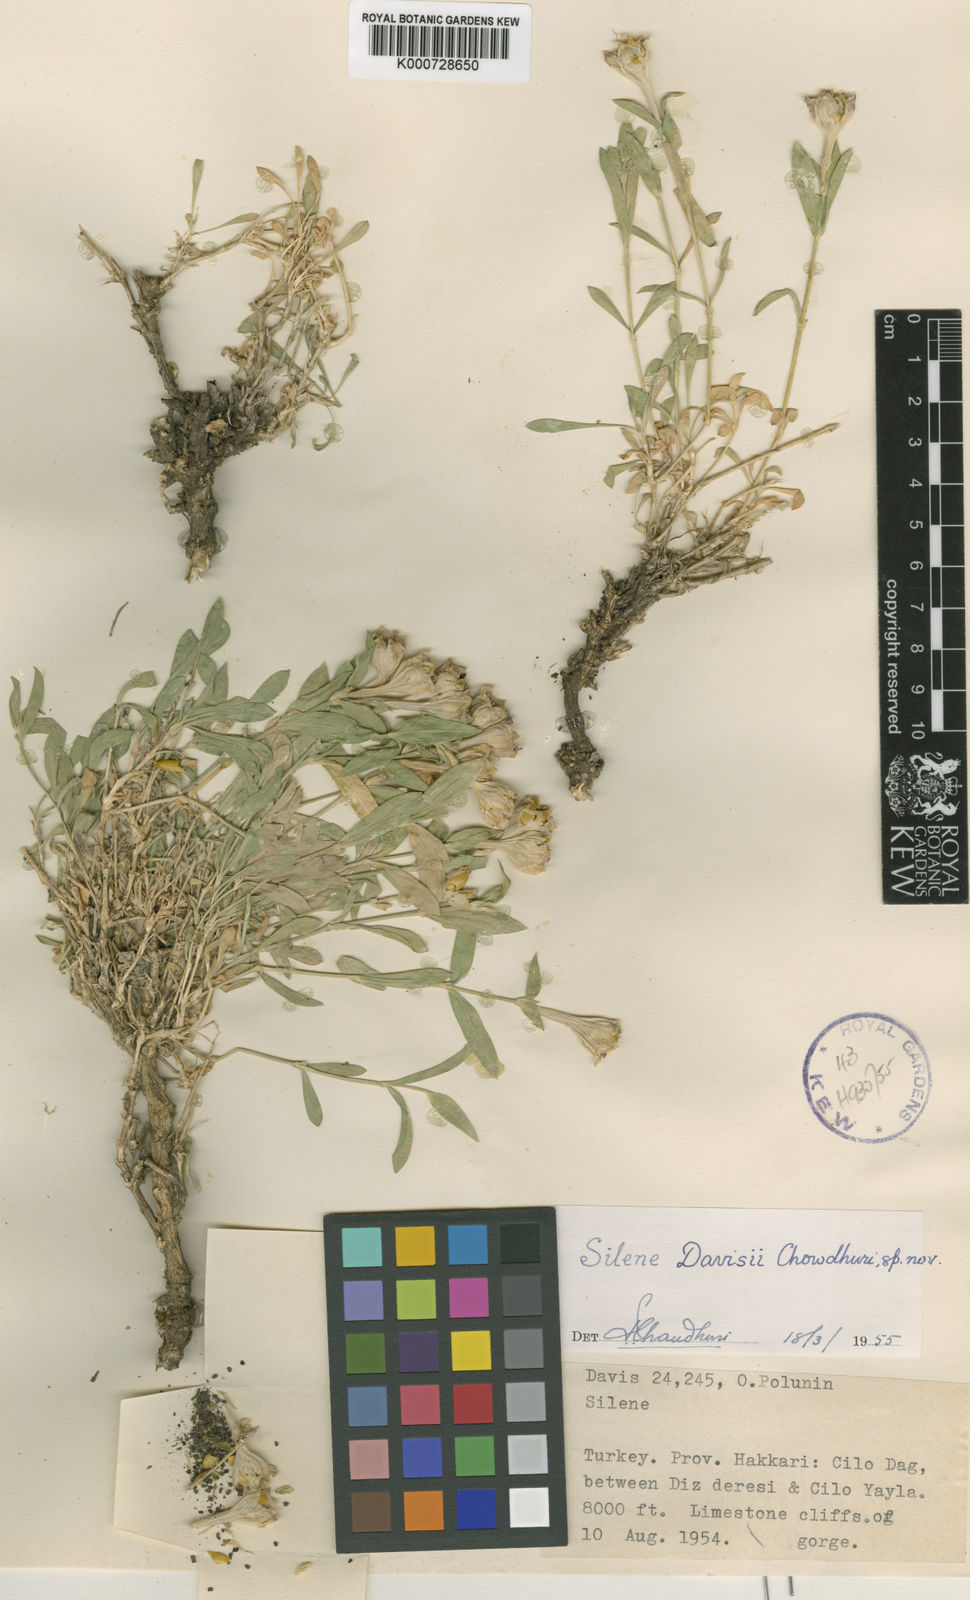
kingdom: Plantae
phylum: Tracheophyta
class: Magnoliopsida
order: Caryophyllales
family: Caryophyllaceae
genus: Silene
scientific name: Silene ciliata
